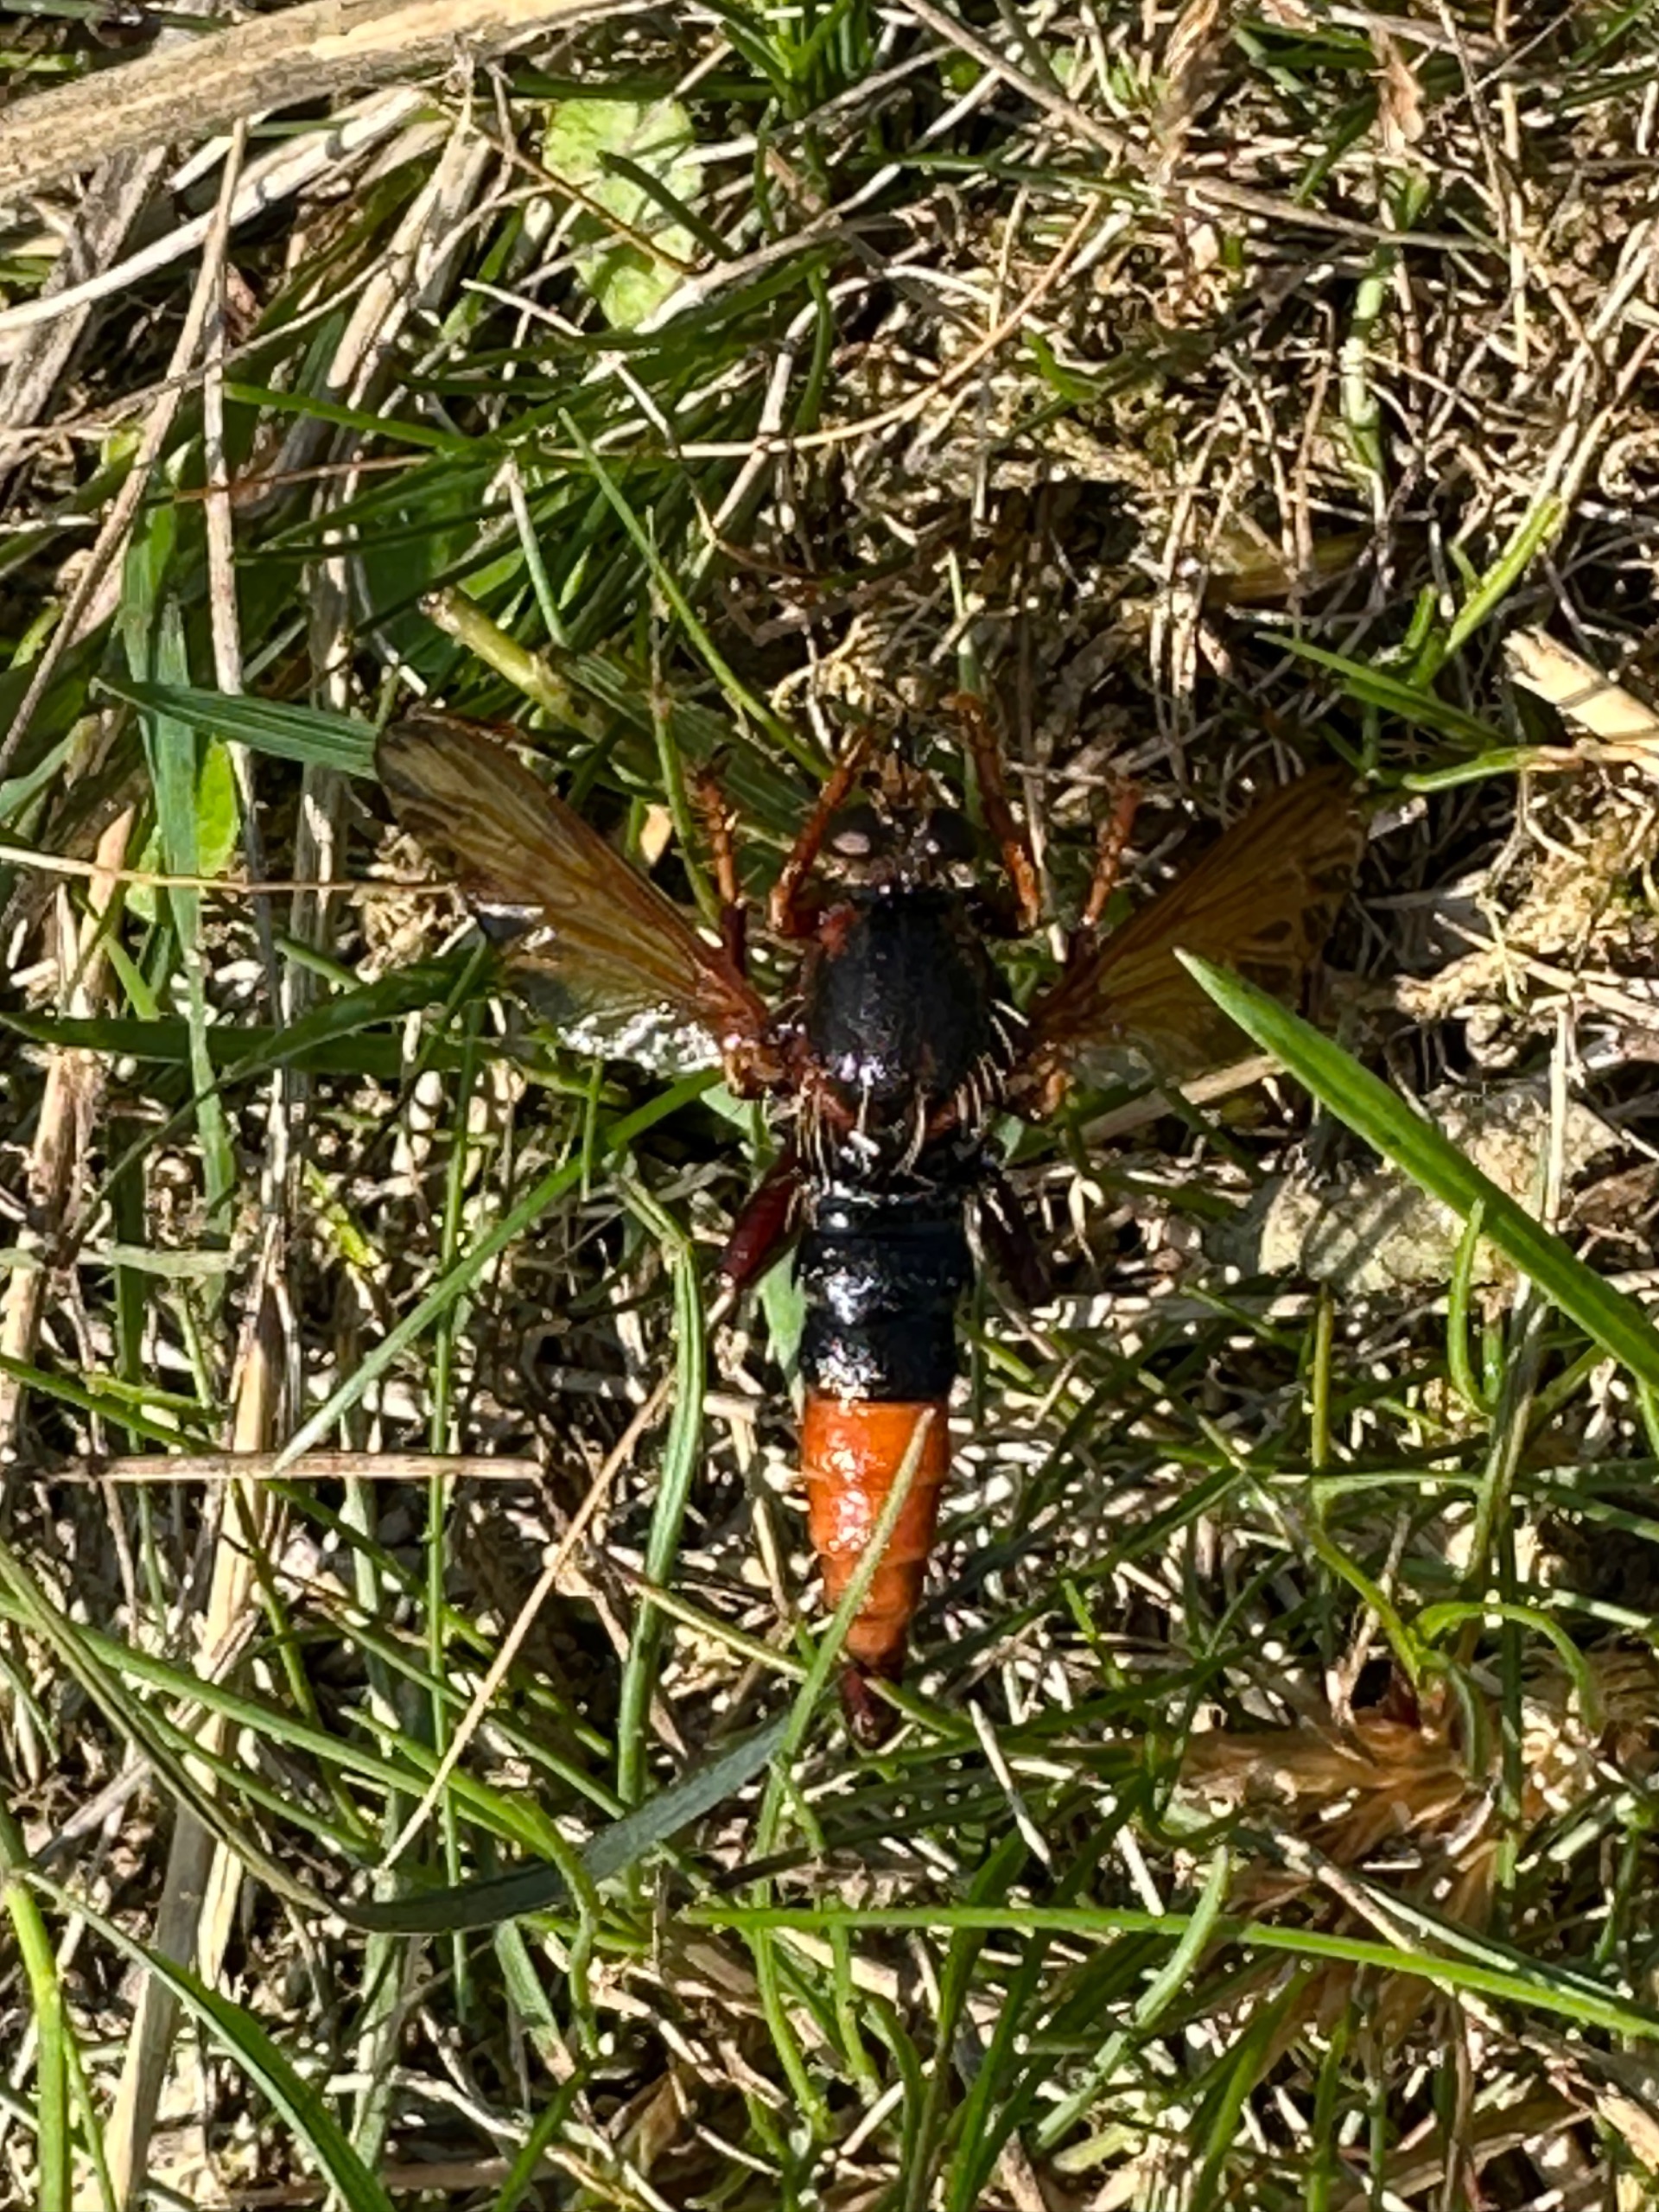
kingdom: Animalia
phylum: Arthropoda
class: Insecta
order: Diptera
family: Asilidae
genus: Asilus
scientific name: Asilus crabroniformis
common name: Stor gødningsrovflue
